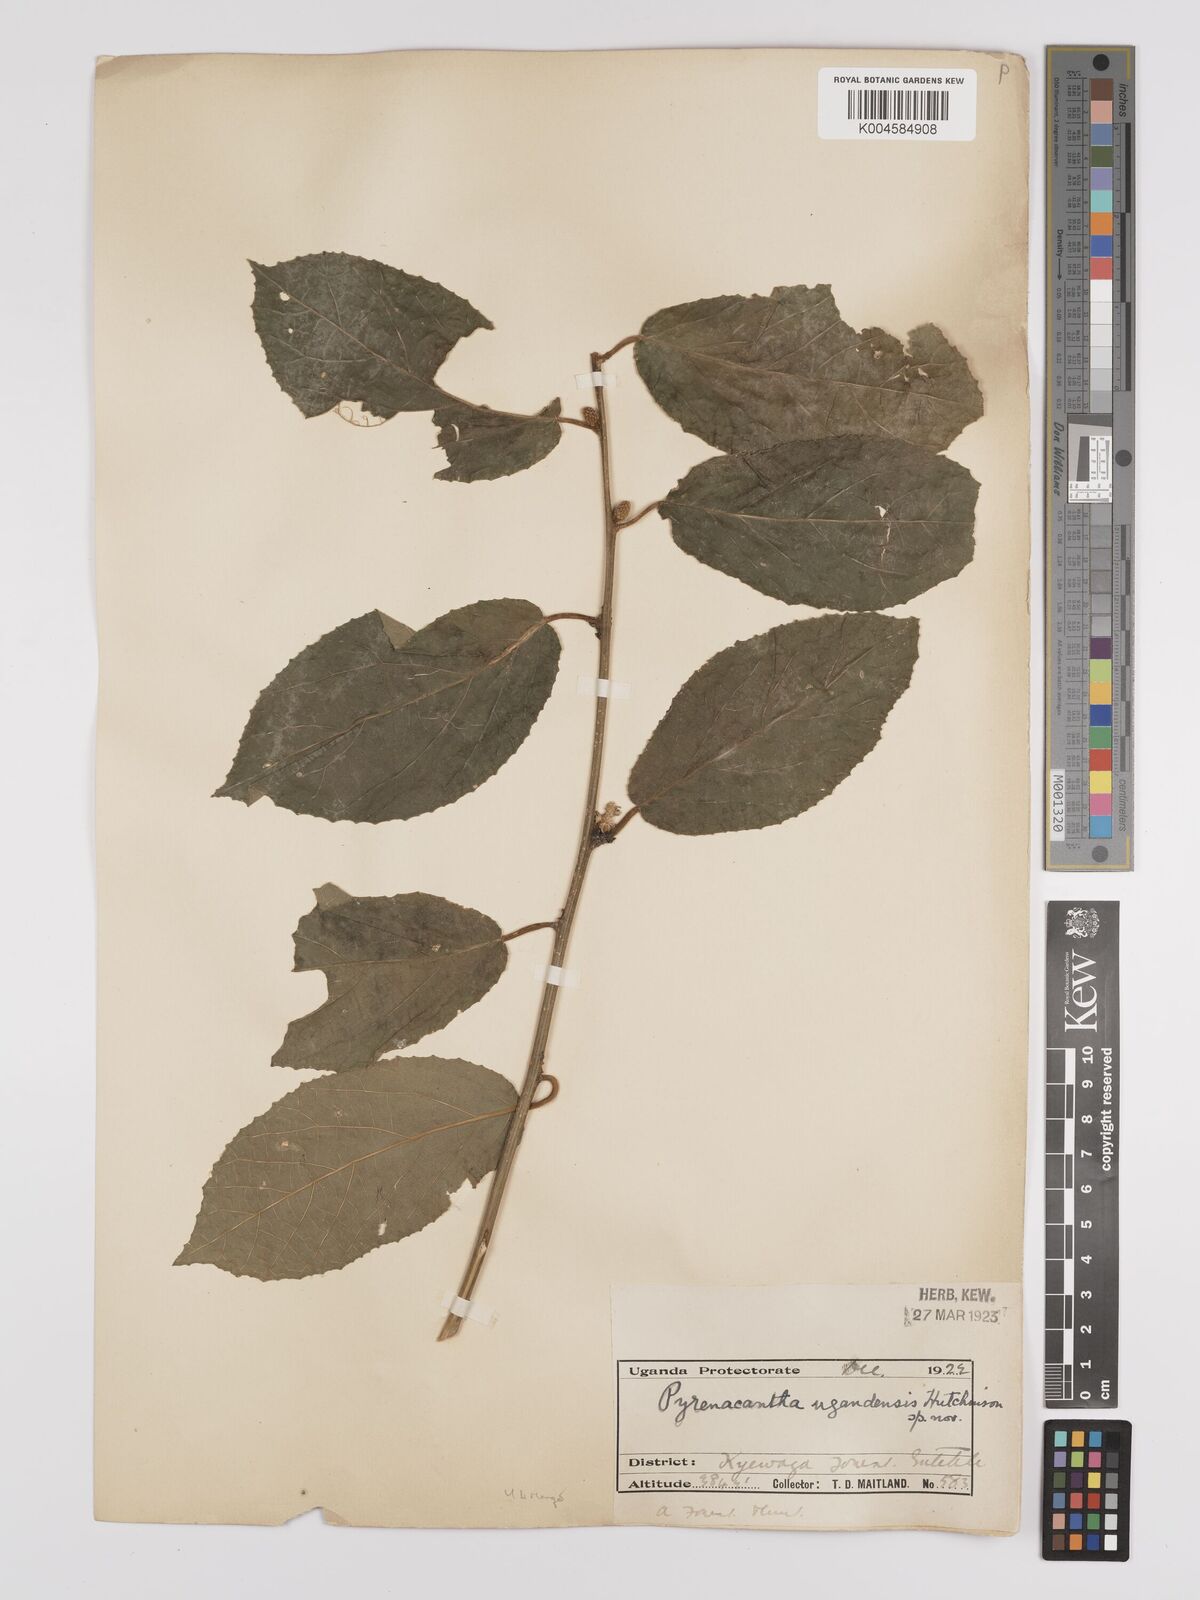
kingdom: Plantae
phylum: Tracheophyta
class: Magnoliopsida
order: Icacinales
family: Icacinaceae
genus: Pyrenacantha
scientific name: Pyrenacantha staudtii
